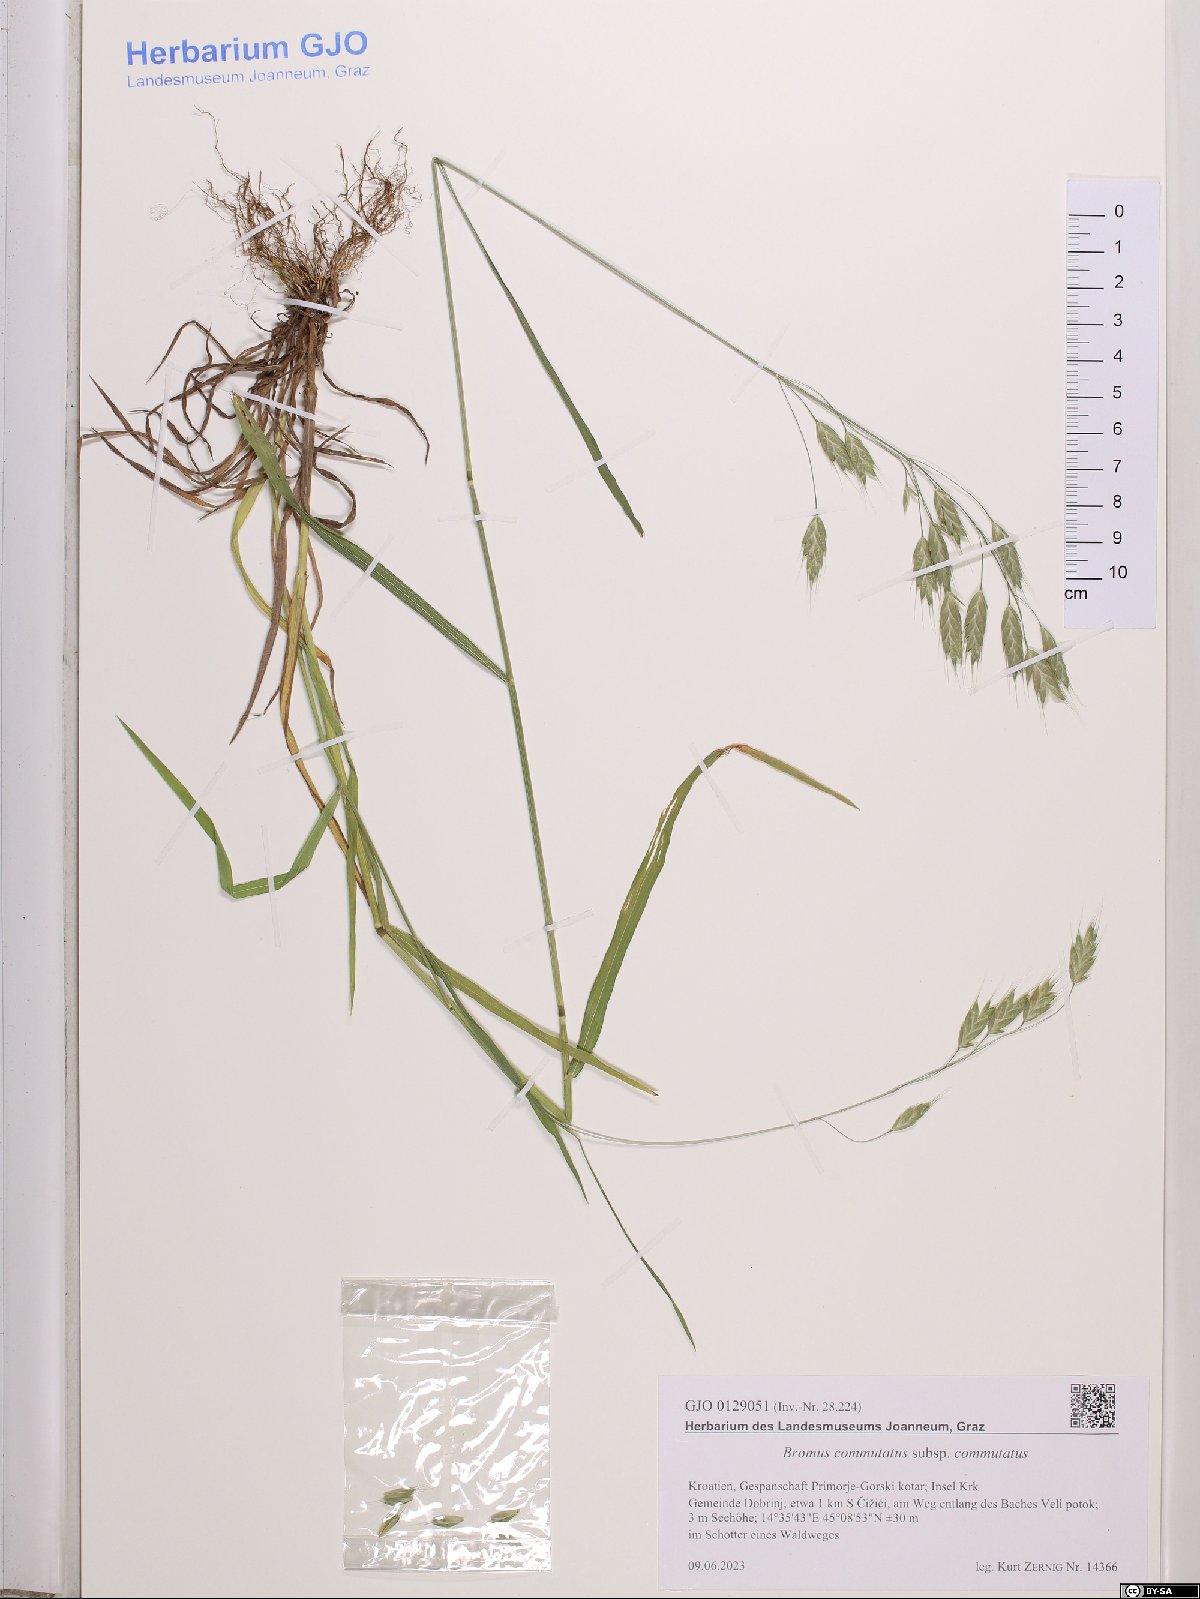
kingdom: Plantae
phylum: Tracheophyta
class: Liliopsida
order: Poales
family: Poaceae
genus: Bromus
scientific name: Bromus commutatus
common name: Meadow brome
